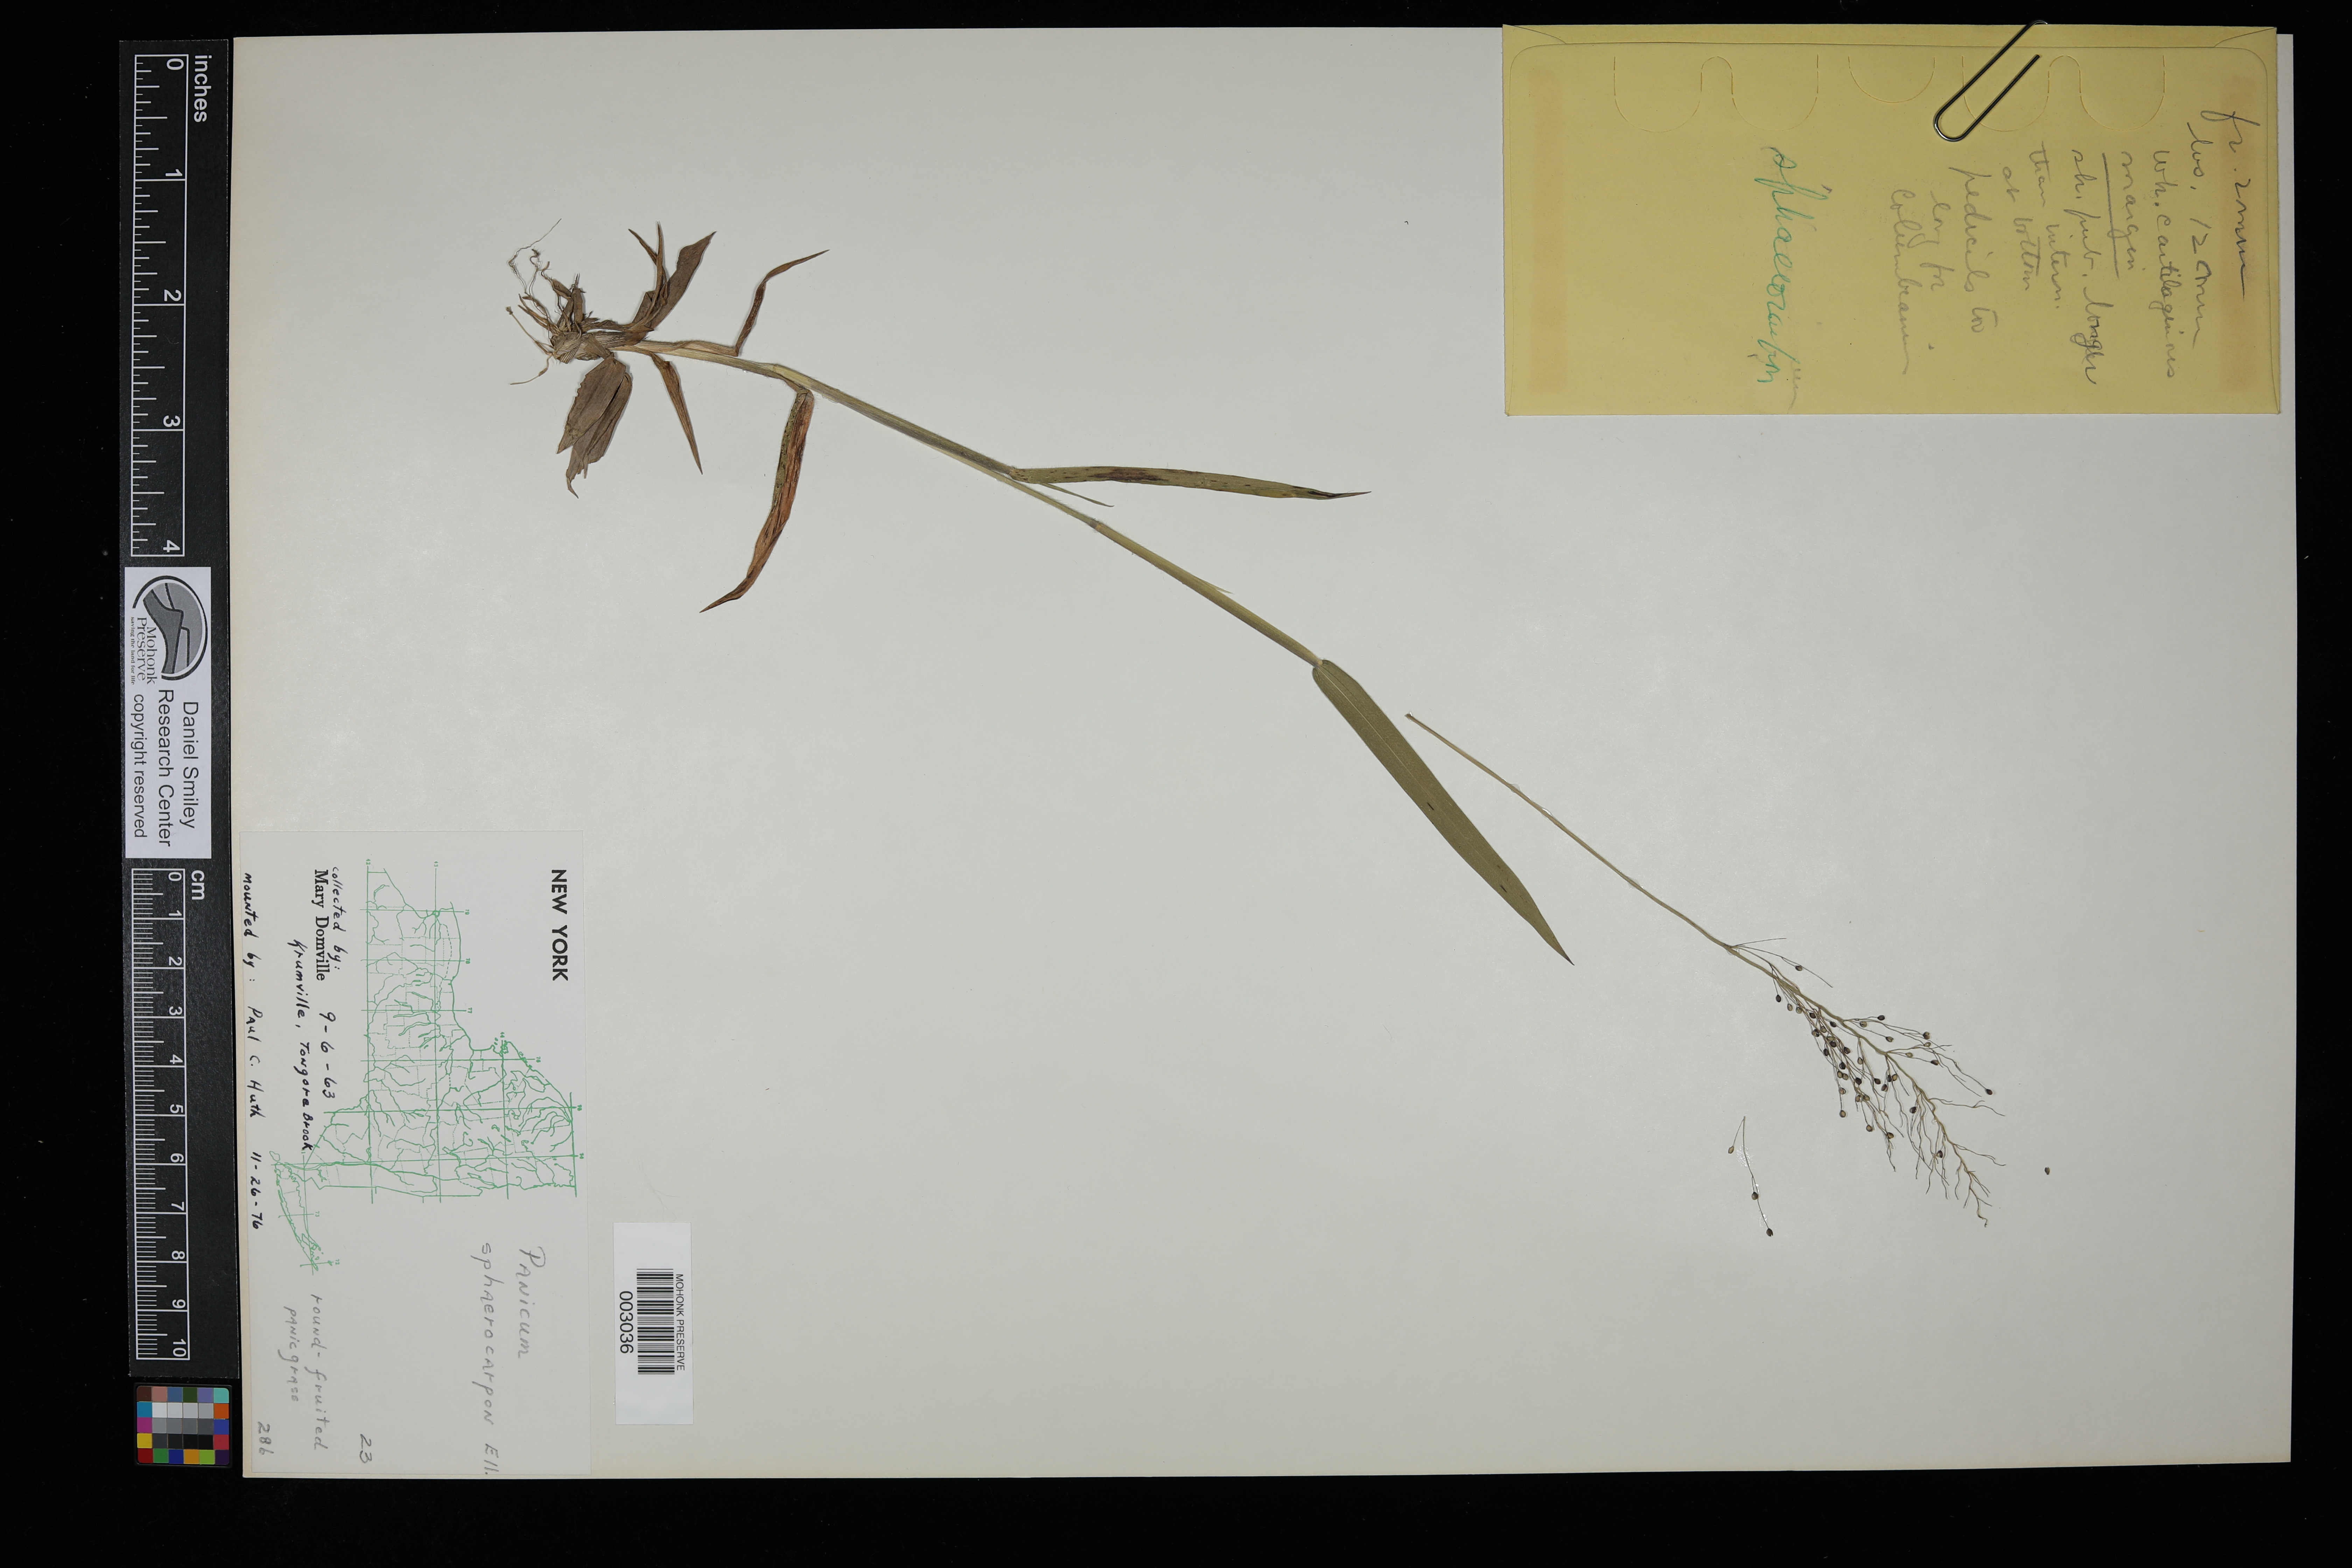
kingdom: Plantae
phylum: Tracheophyta
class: Liliopsida
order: Poales
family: Poaceae
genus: Dichanthelium
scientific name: Dichanthelium sphaerocarpon
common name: Round-fruited panicgrass
